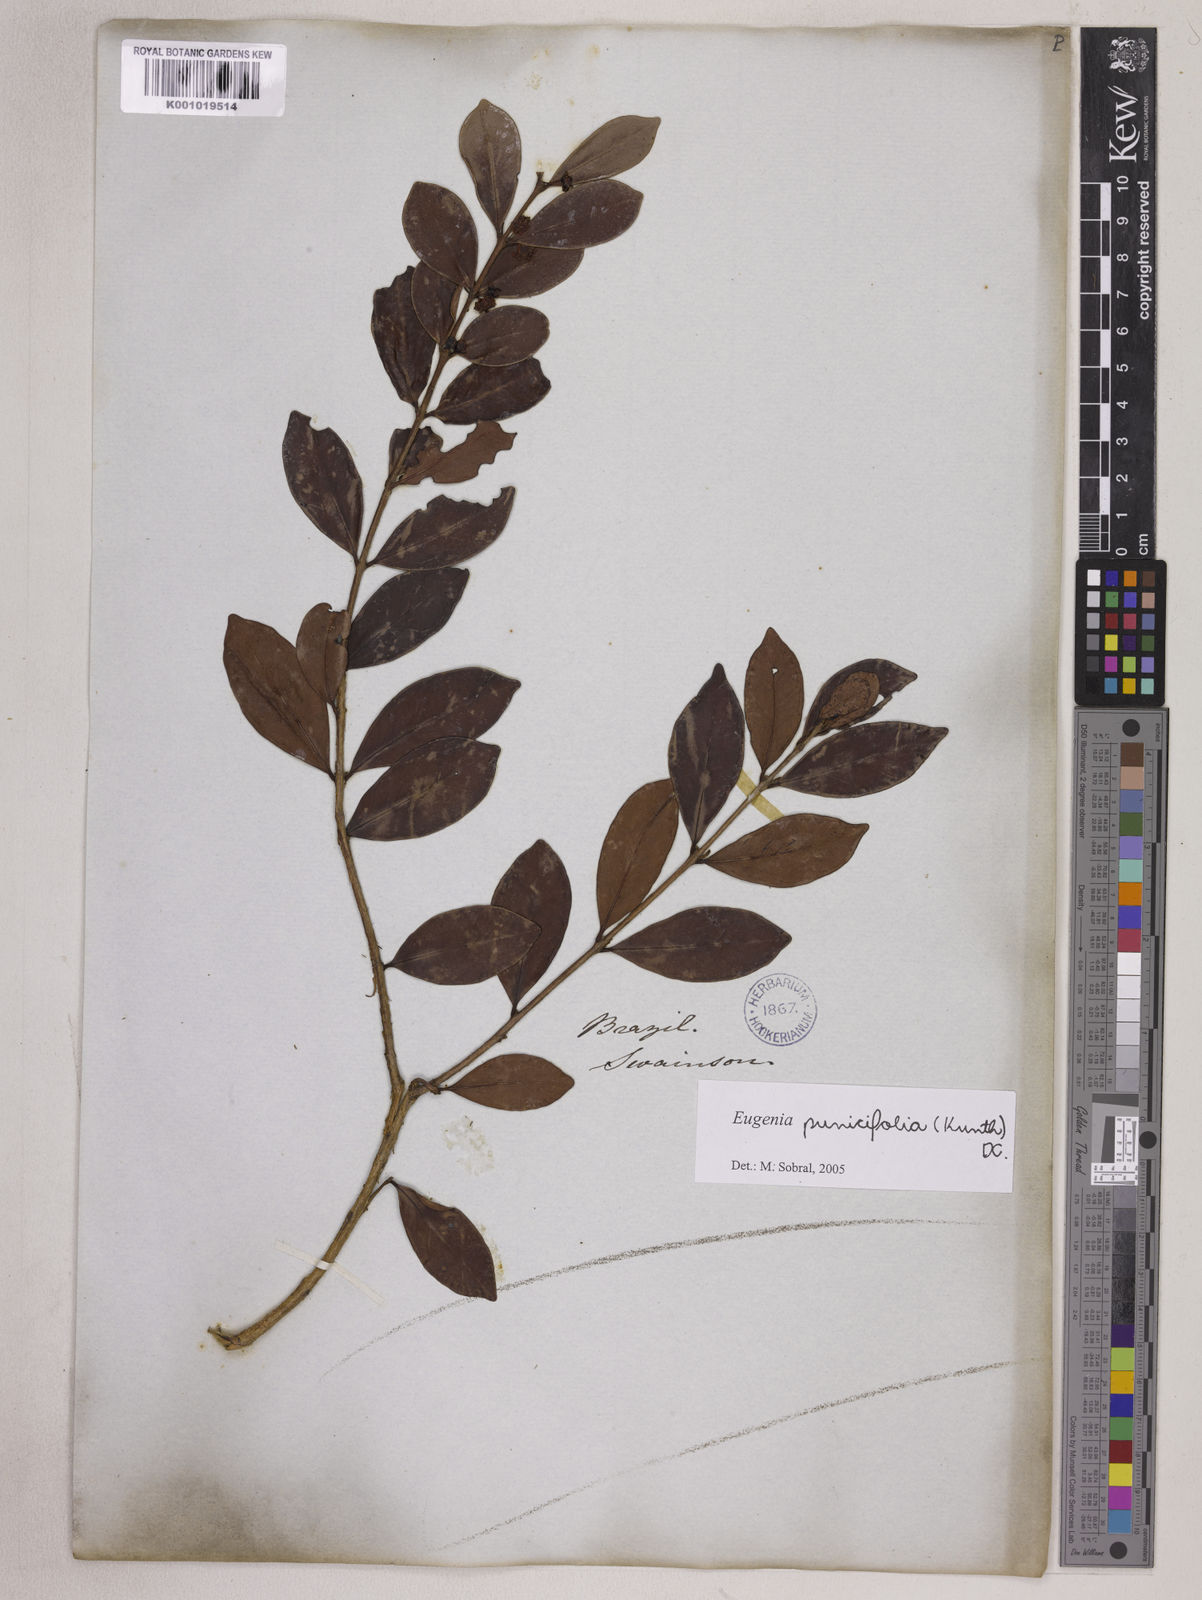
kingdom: Plantae
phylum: Tracheophyta
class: Magnoliopsida
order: Myrtales
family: Myrtaceae
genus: Eugenia
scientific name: Eugenia punicifolia
